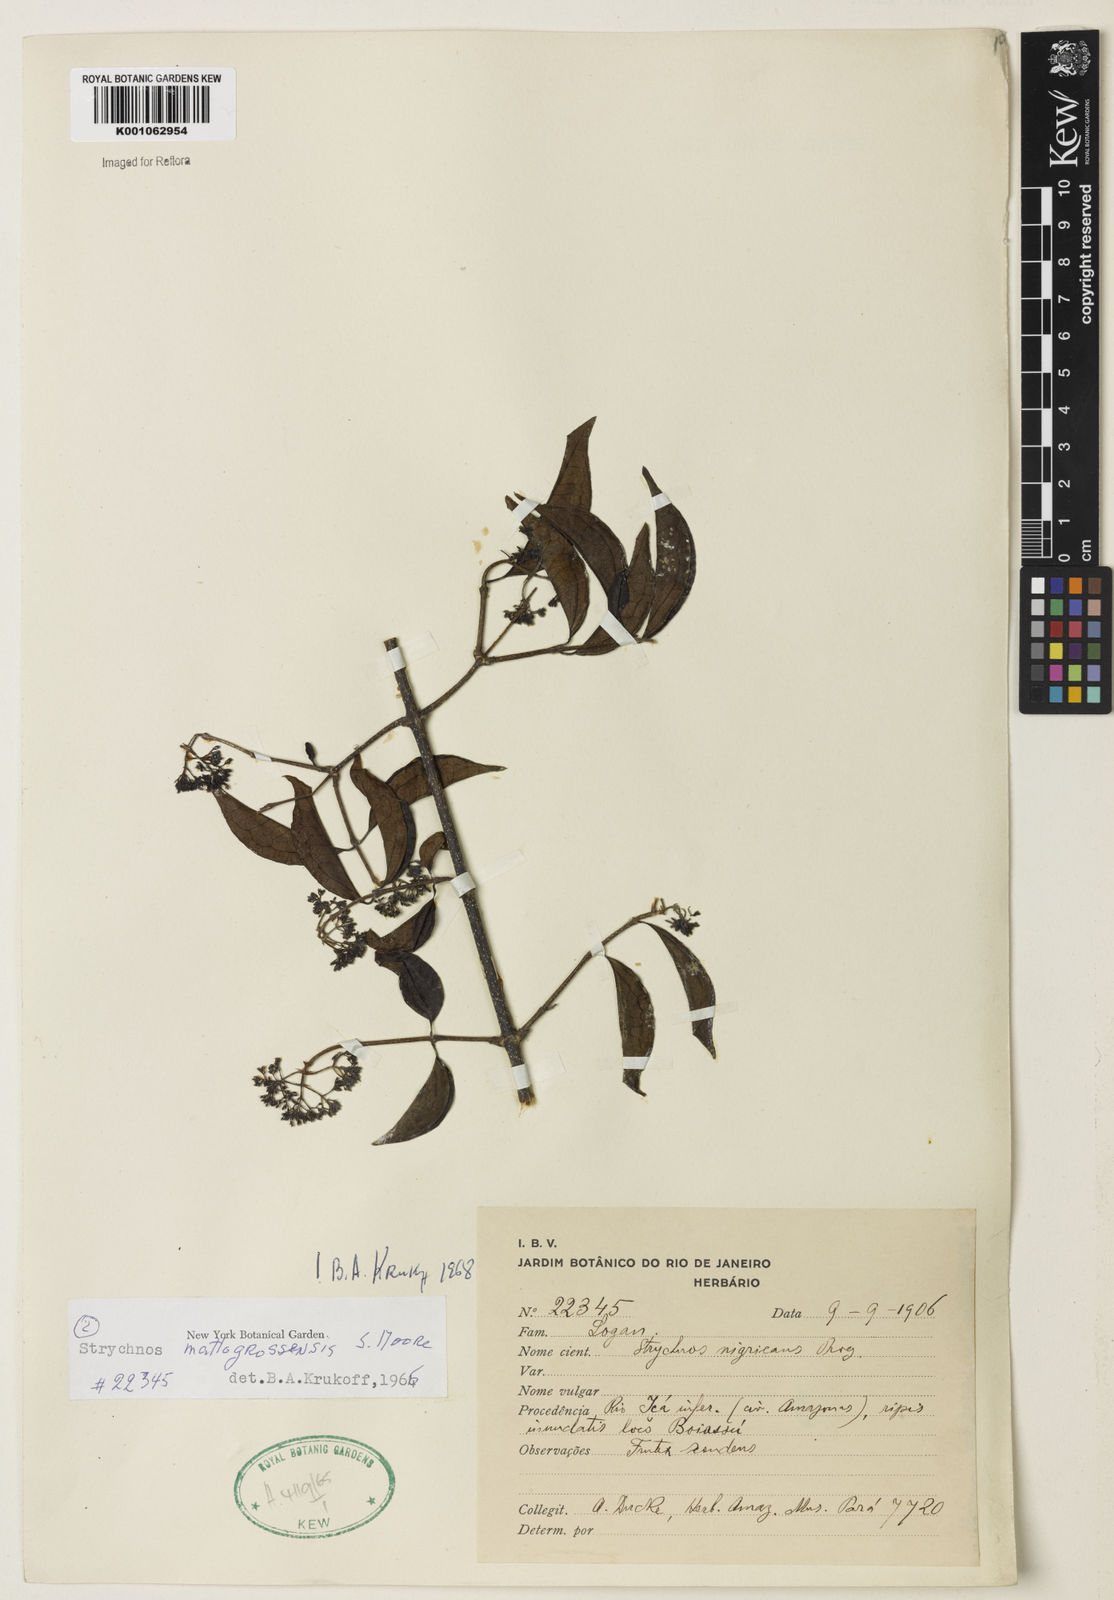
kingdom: Plantae
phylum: Tracheophyta
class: Magnoliopsida
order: Gentianales
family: Loganiaceae
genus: Strychnos
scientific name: Strychnos mattogrossensis
